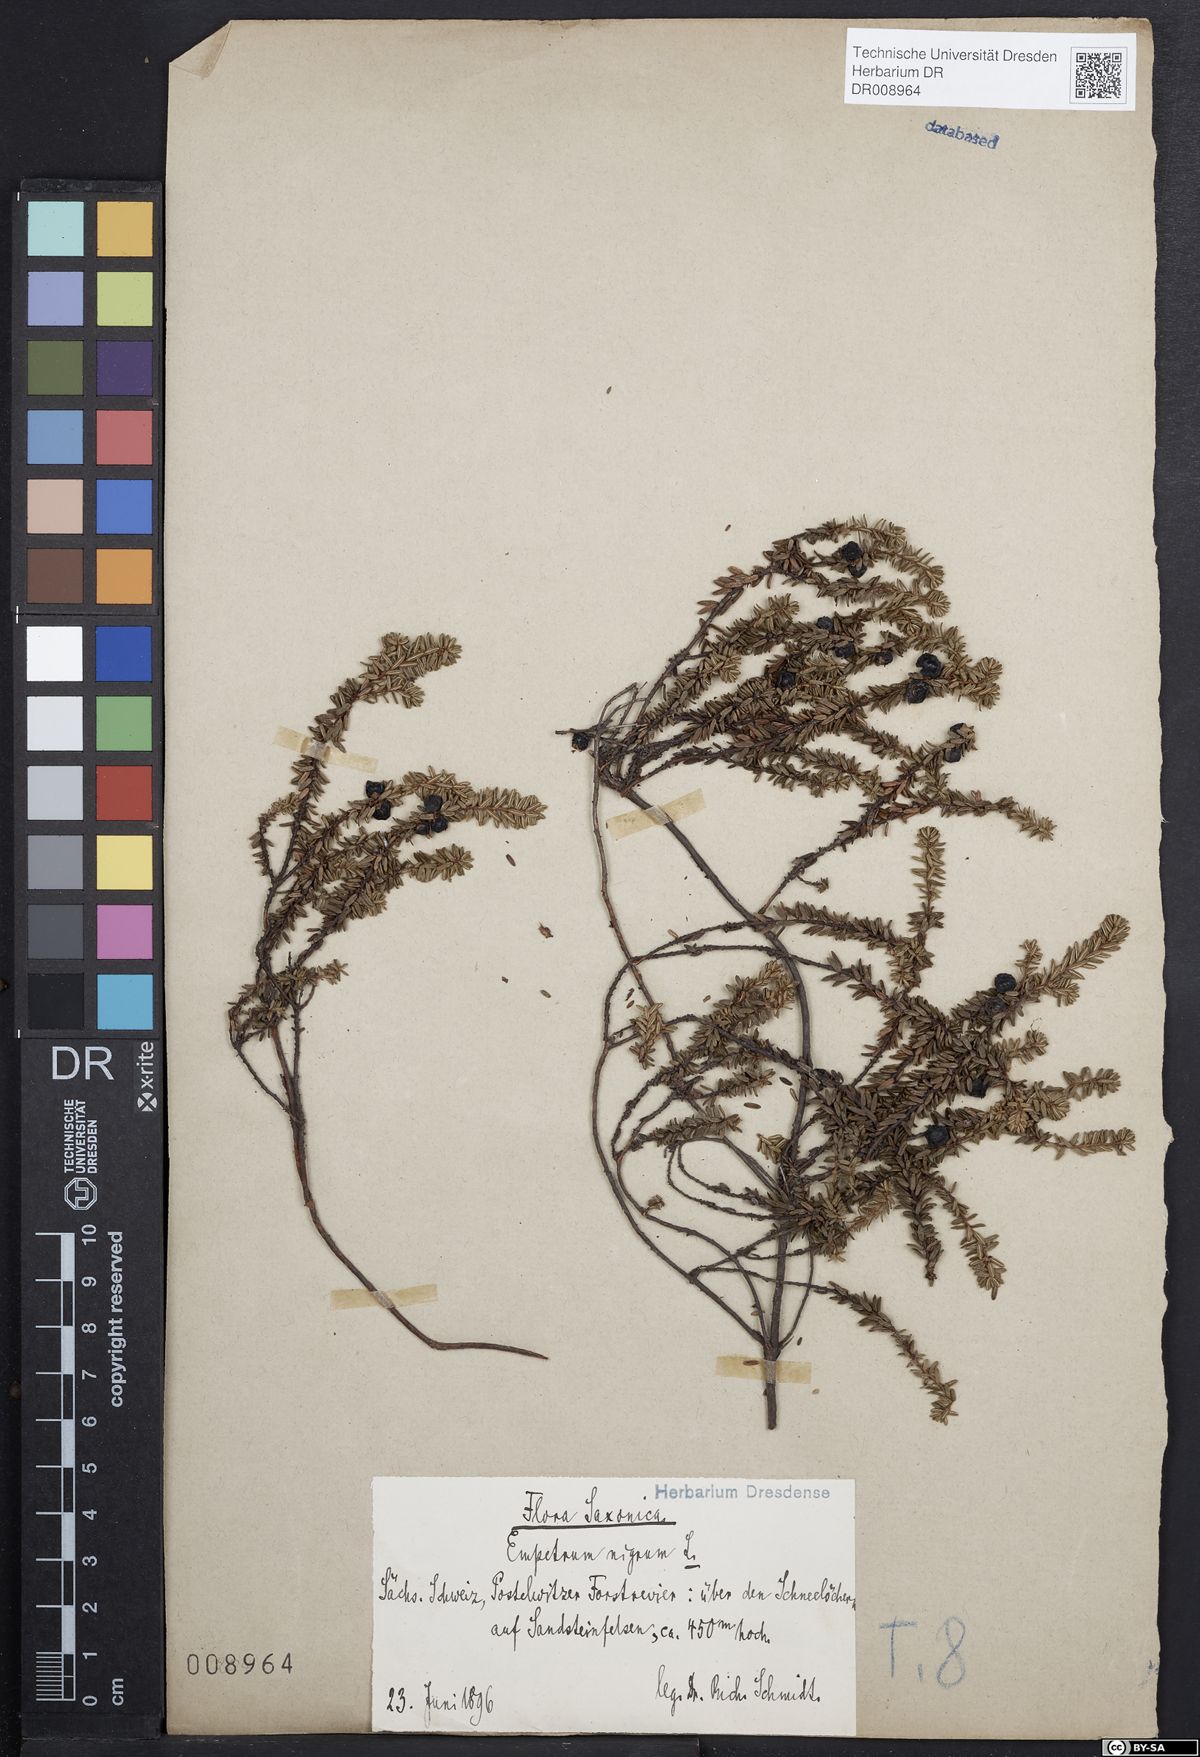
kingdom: Plantae
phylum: Tracheophyta
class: Magnoliopsida
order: Ericales
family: Ericaceae
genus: Empetrum
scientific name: Empetrum nigrum
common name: Black crowberry
